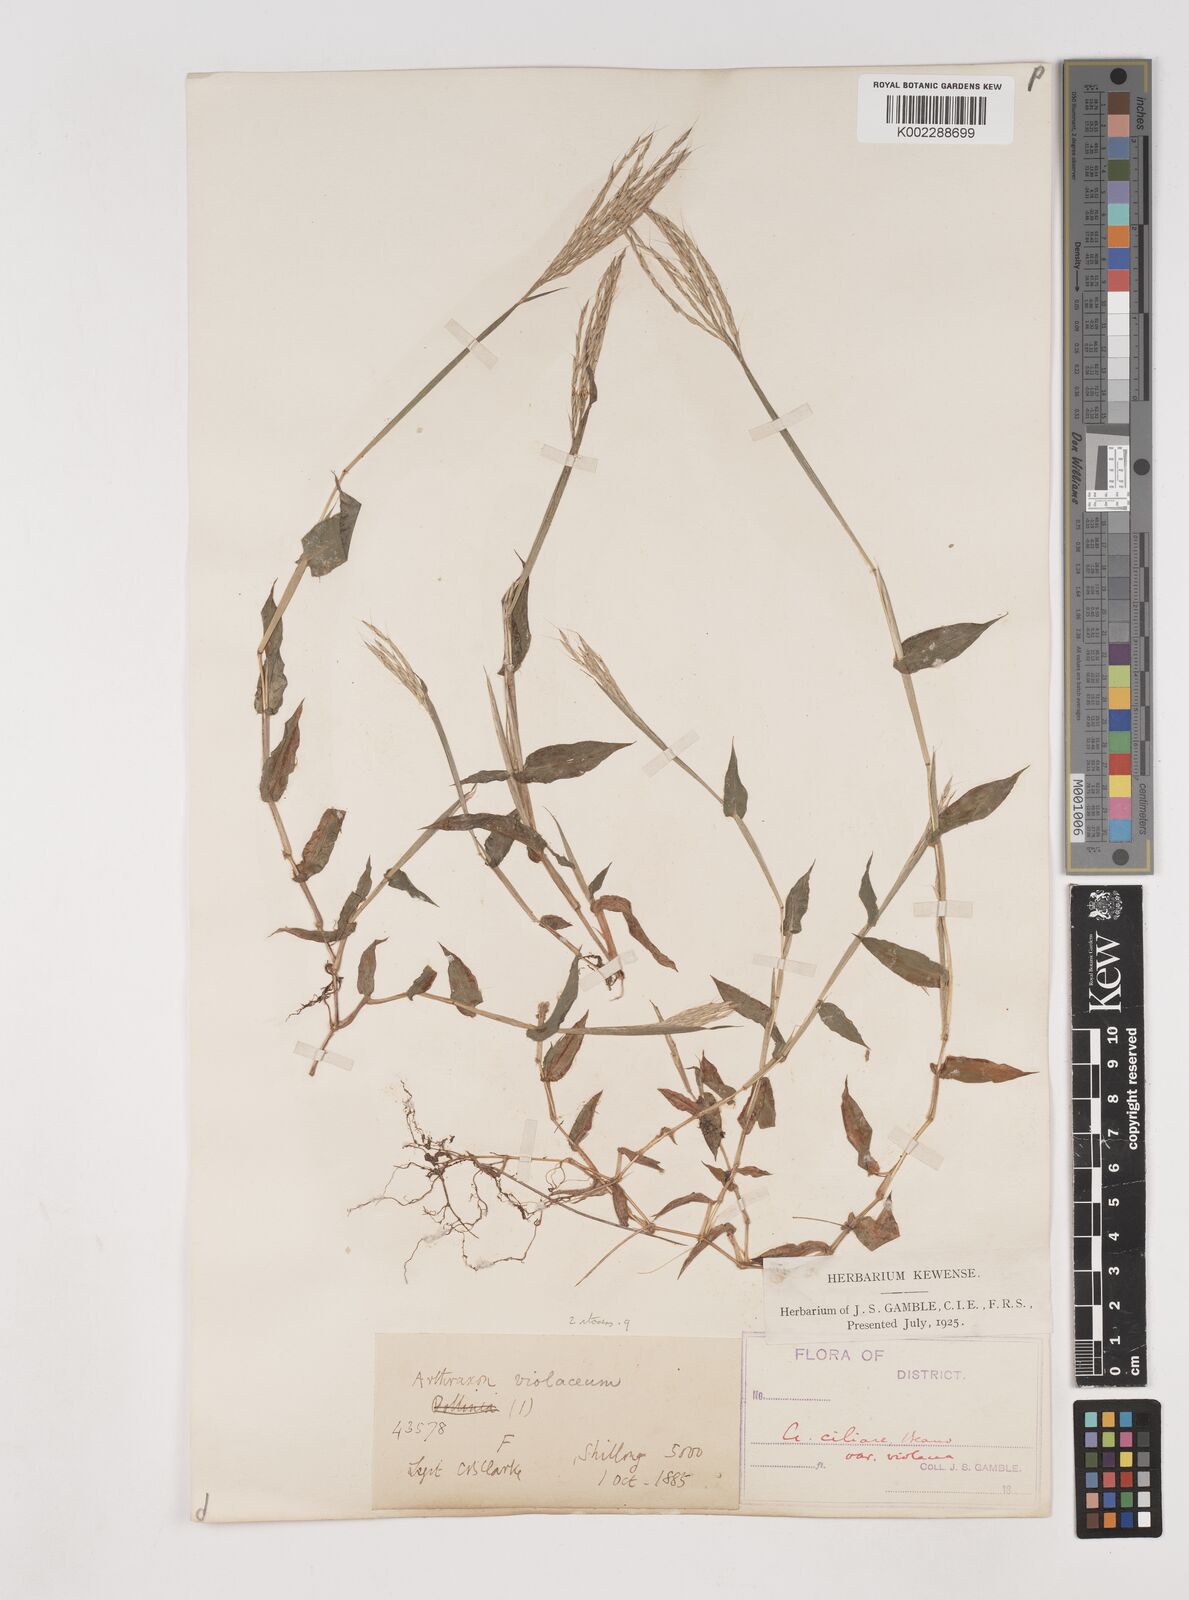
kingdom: Plantae
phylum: Tracheophyta
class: Liliopsida
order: Poales
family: Poaceae
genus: Arthraxon
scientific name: Arthraxon hispidus
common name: Small carpgrass
